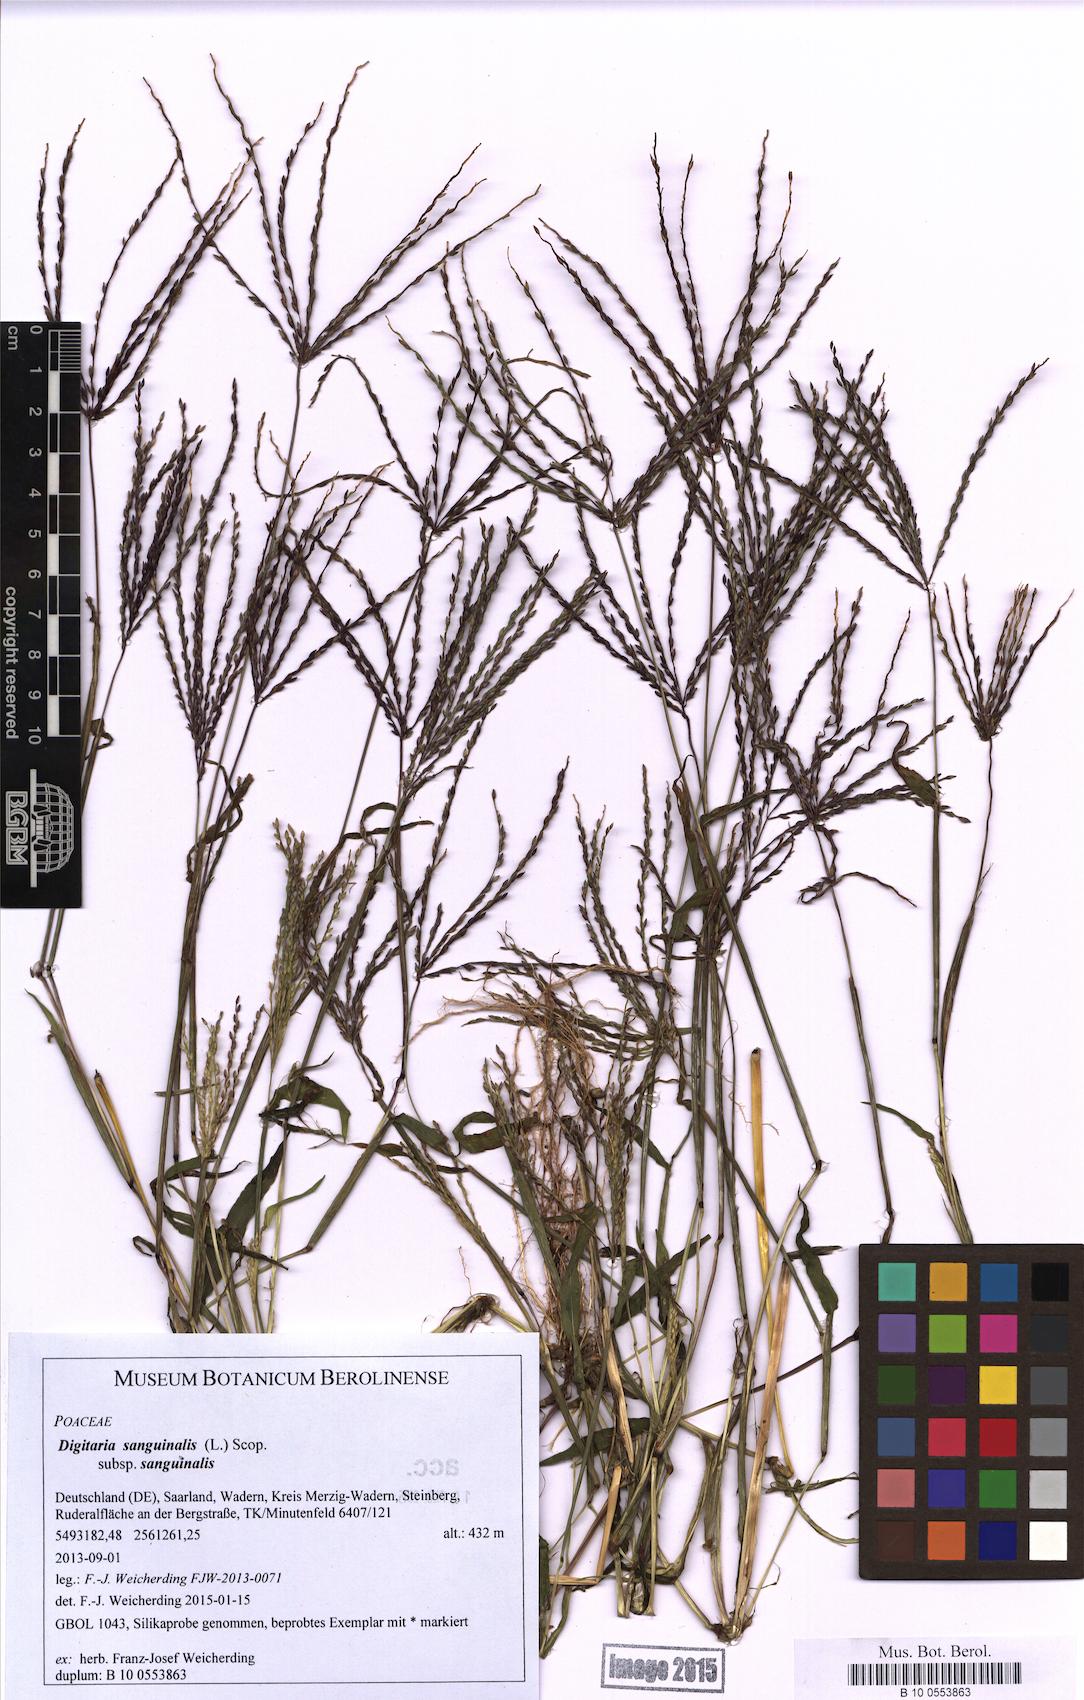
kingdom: Plantae
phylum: Tracheophyta
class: Liliopsida
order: Poales
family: Poaceae
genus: Digitaria
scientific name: Digitaria sanguinalis
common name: Hairy crabgrass
